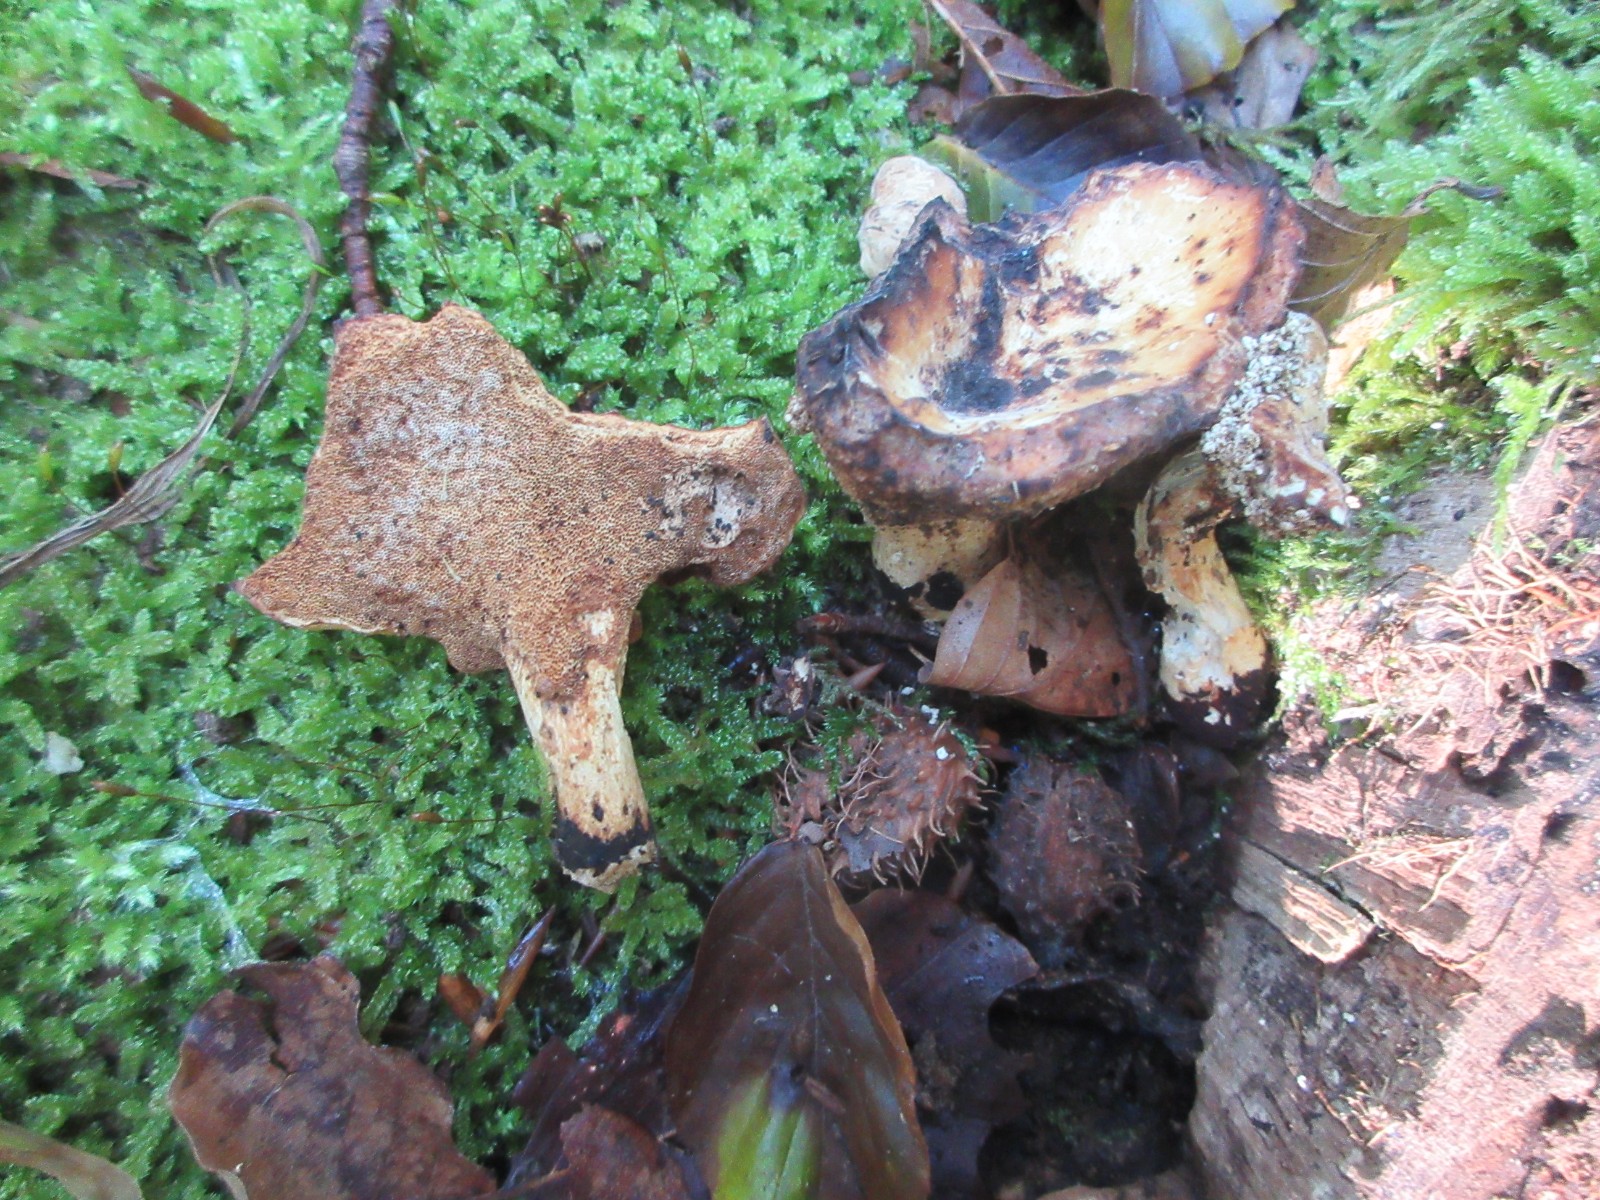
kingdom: Fungi
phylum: Basidiomycota
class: Agaricomycetes
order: Polyporales
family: Polyporaceae
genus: Cerioporus
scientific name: Cerioporus varius
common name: foranderlig stilkporesvamp
